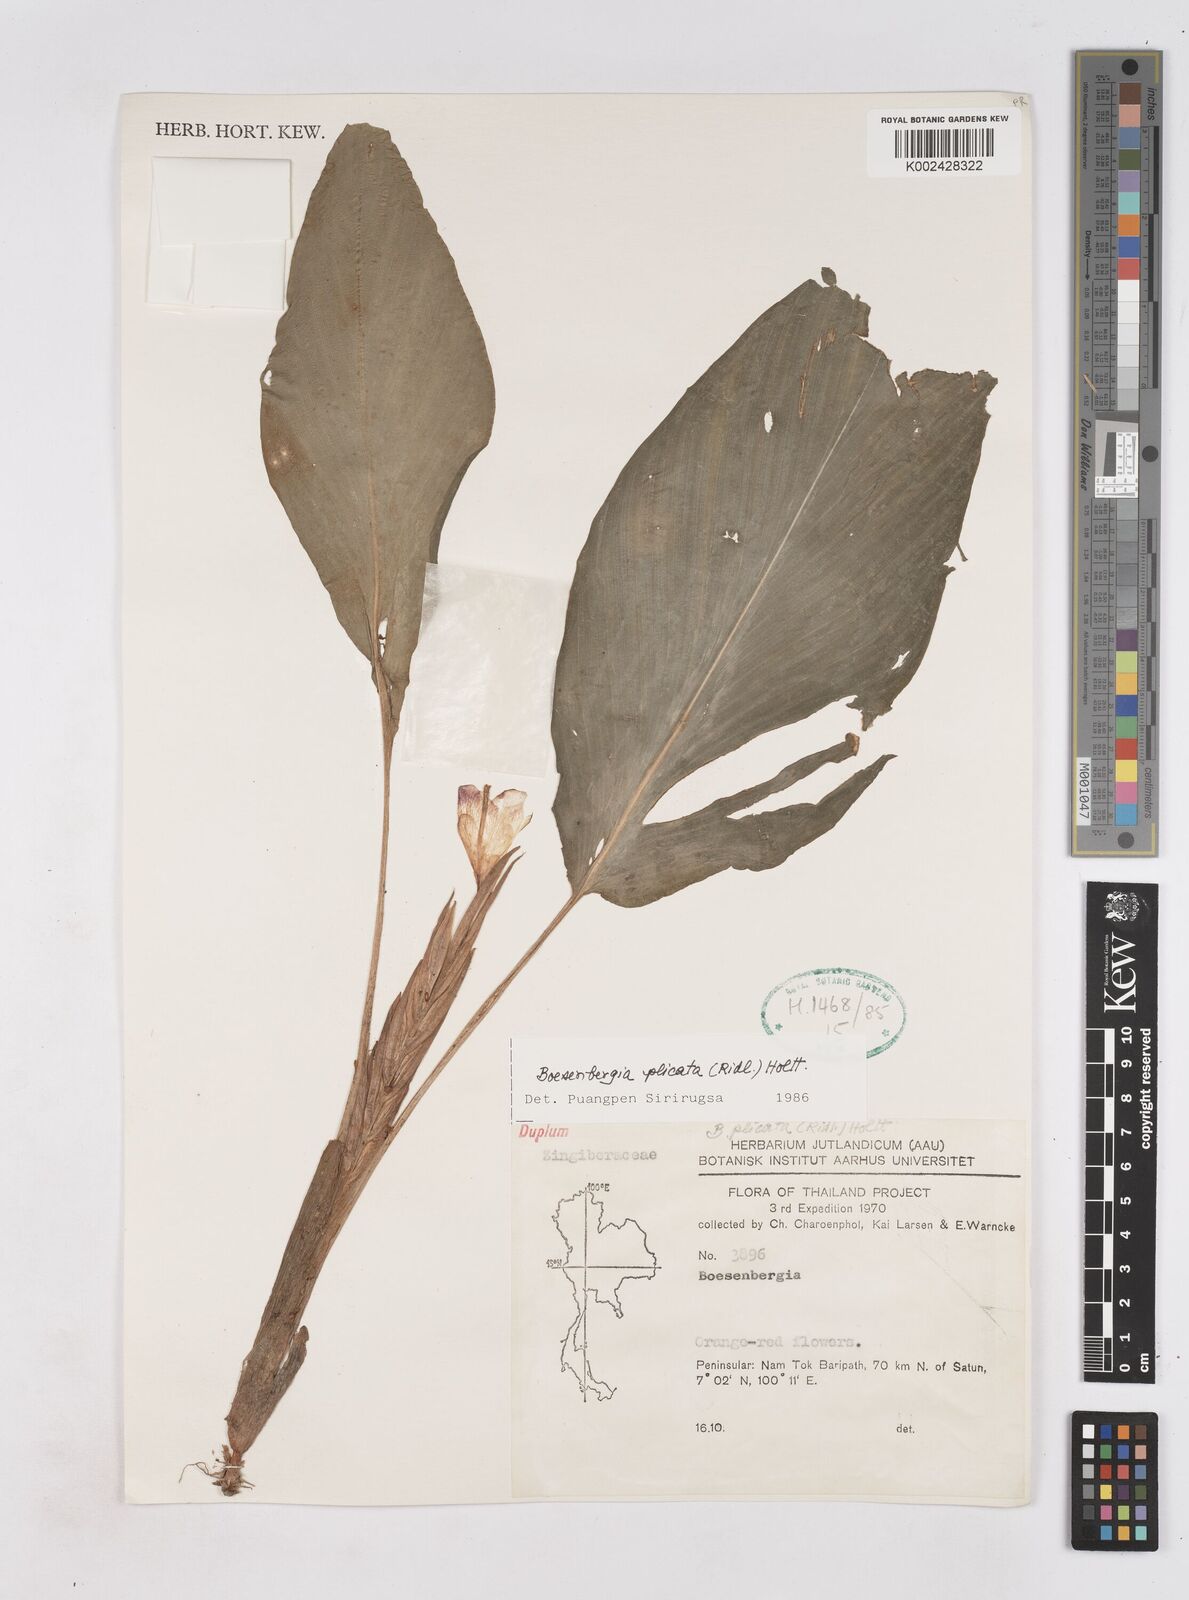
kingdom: Plantae
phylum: Tracheophyta
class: Liliopsida
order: Zingiberales
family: Zingiberaceae
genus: Boesenbergia
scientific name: Boesenbergia plicata
